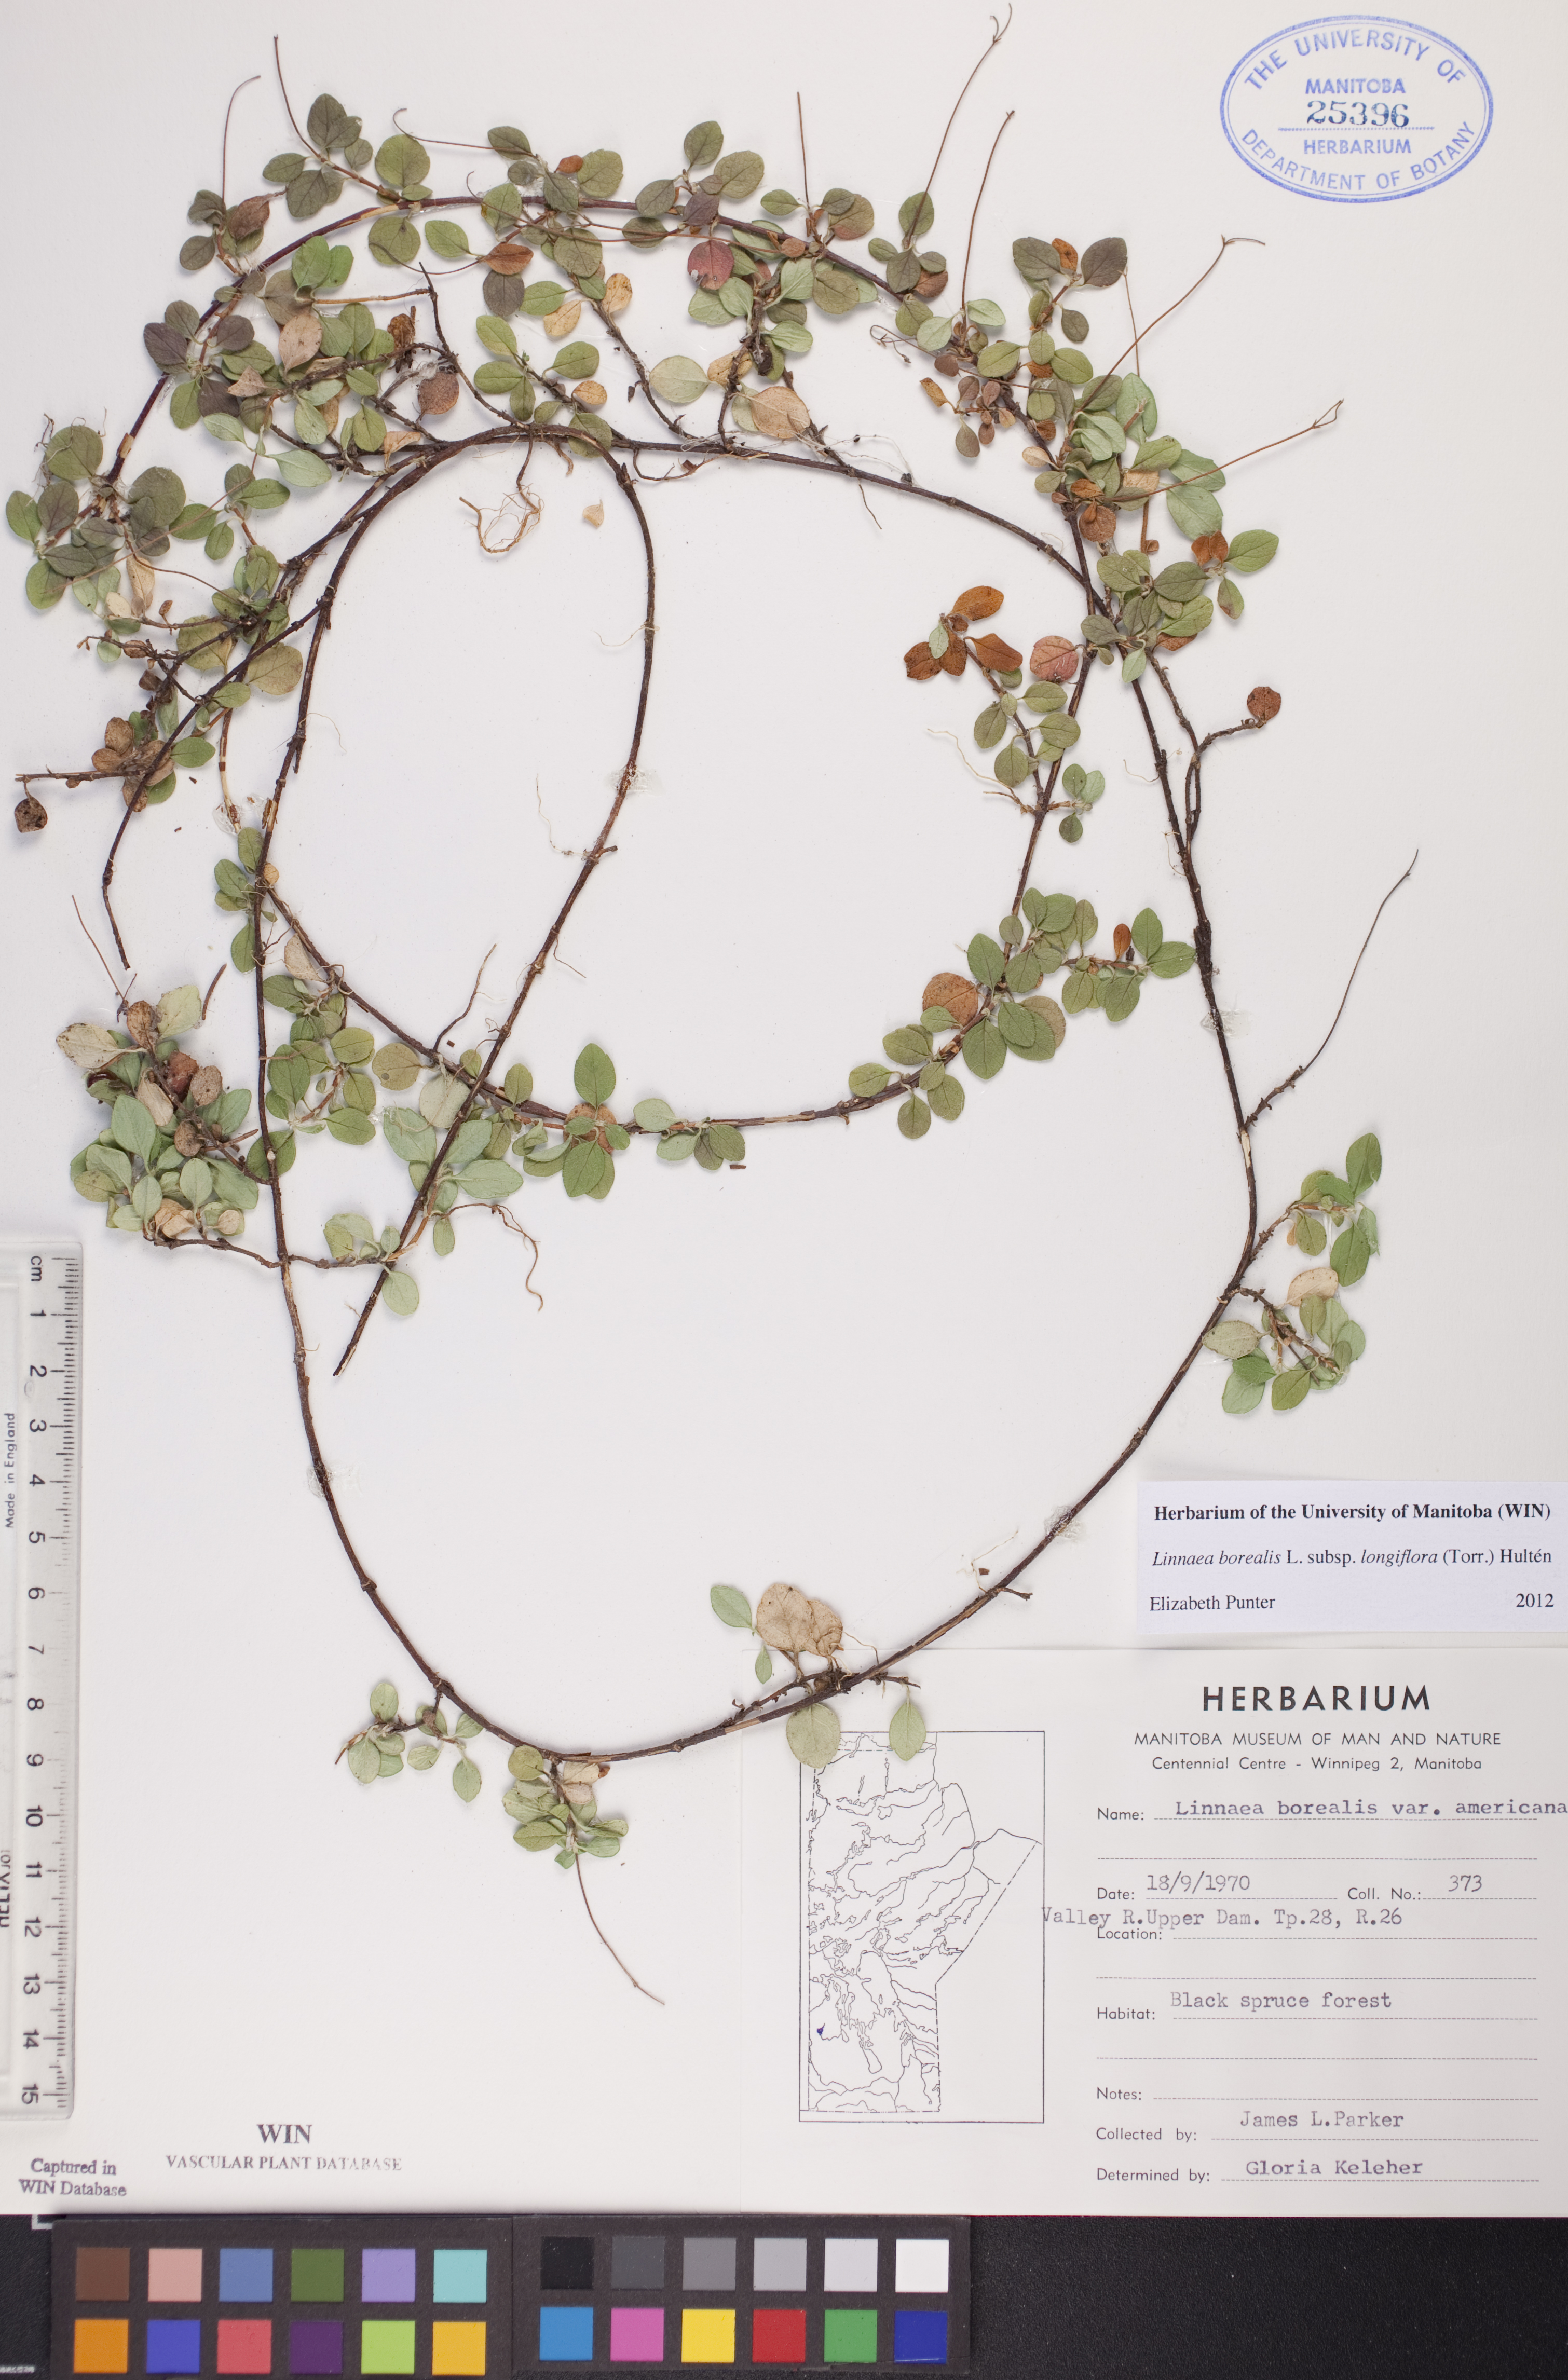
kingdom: Plantae
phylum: Tracheophyta
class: Magnoliopsida
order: Dipsacales
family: Caprifoliaceae
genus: Linnaea
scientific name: Linnaea borealis
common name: Twinflower
